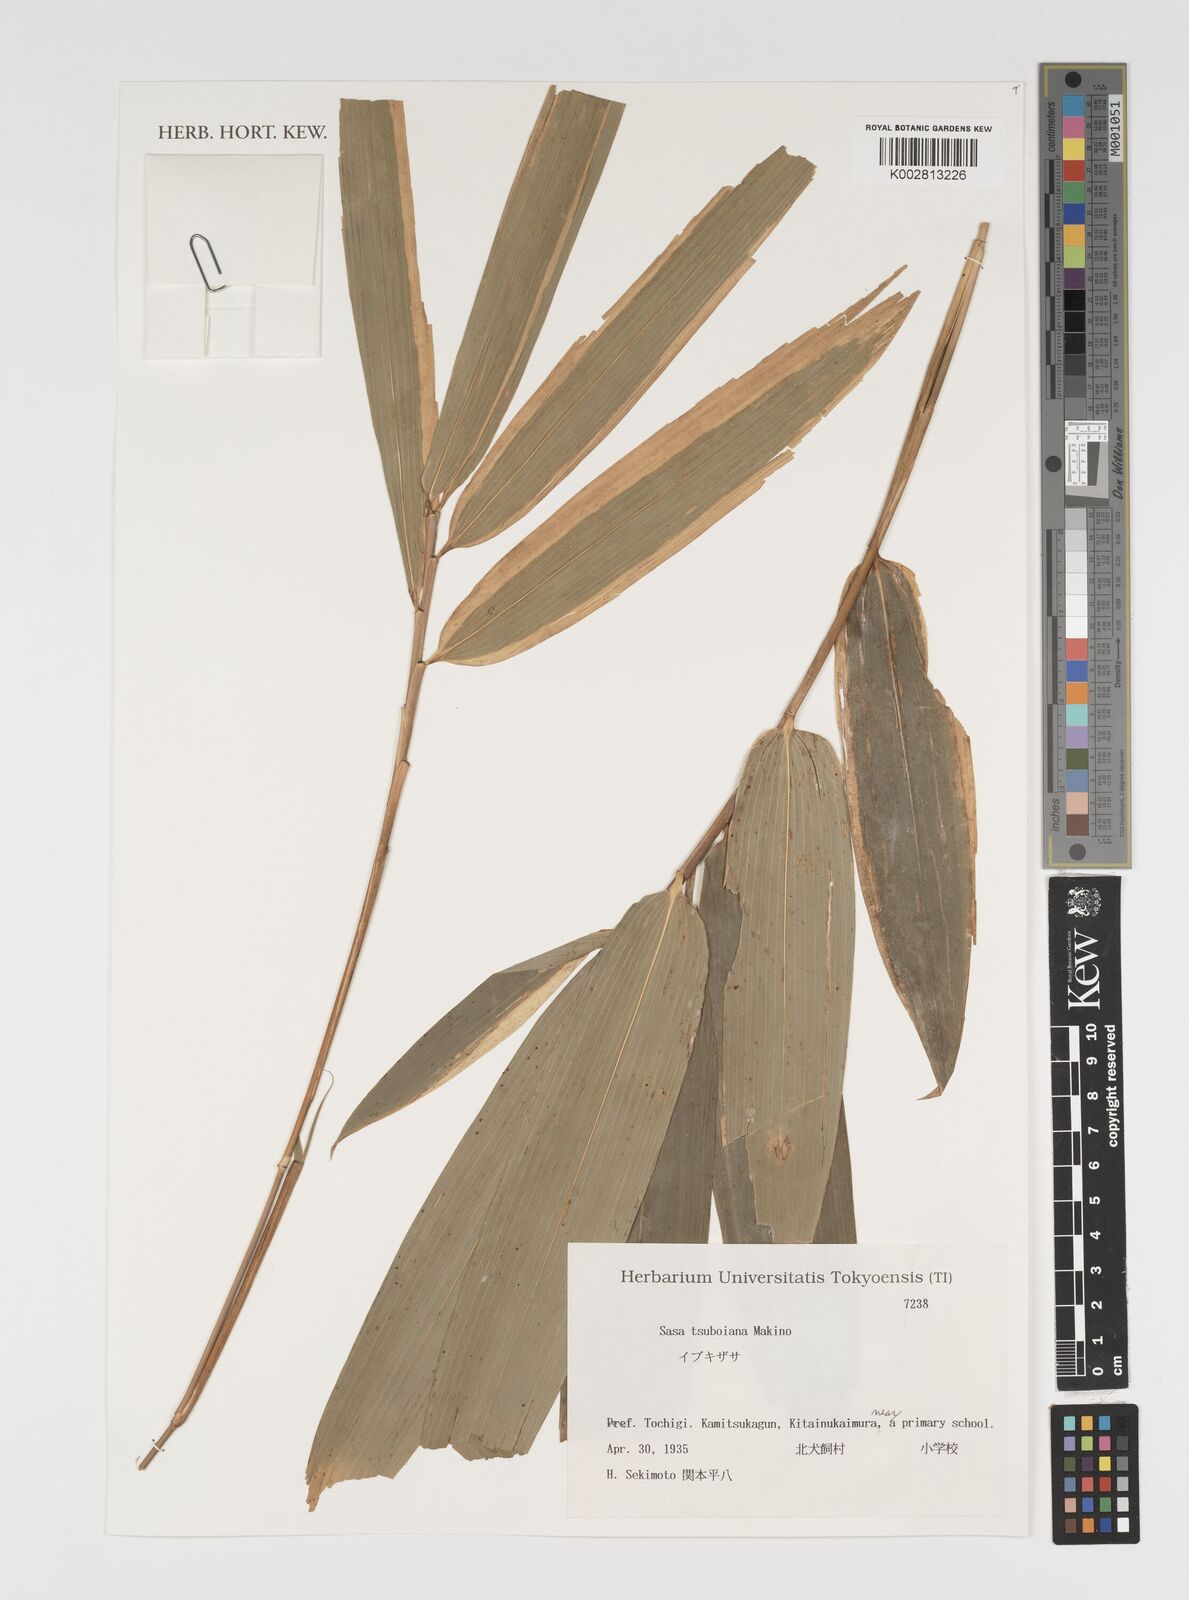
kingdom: Plantae
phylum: Tracheophyta
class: Liliopsida
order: Poales
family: Poaceae
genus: Sasa
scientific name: Sasa tsuboiana
